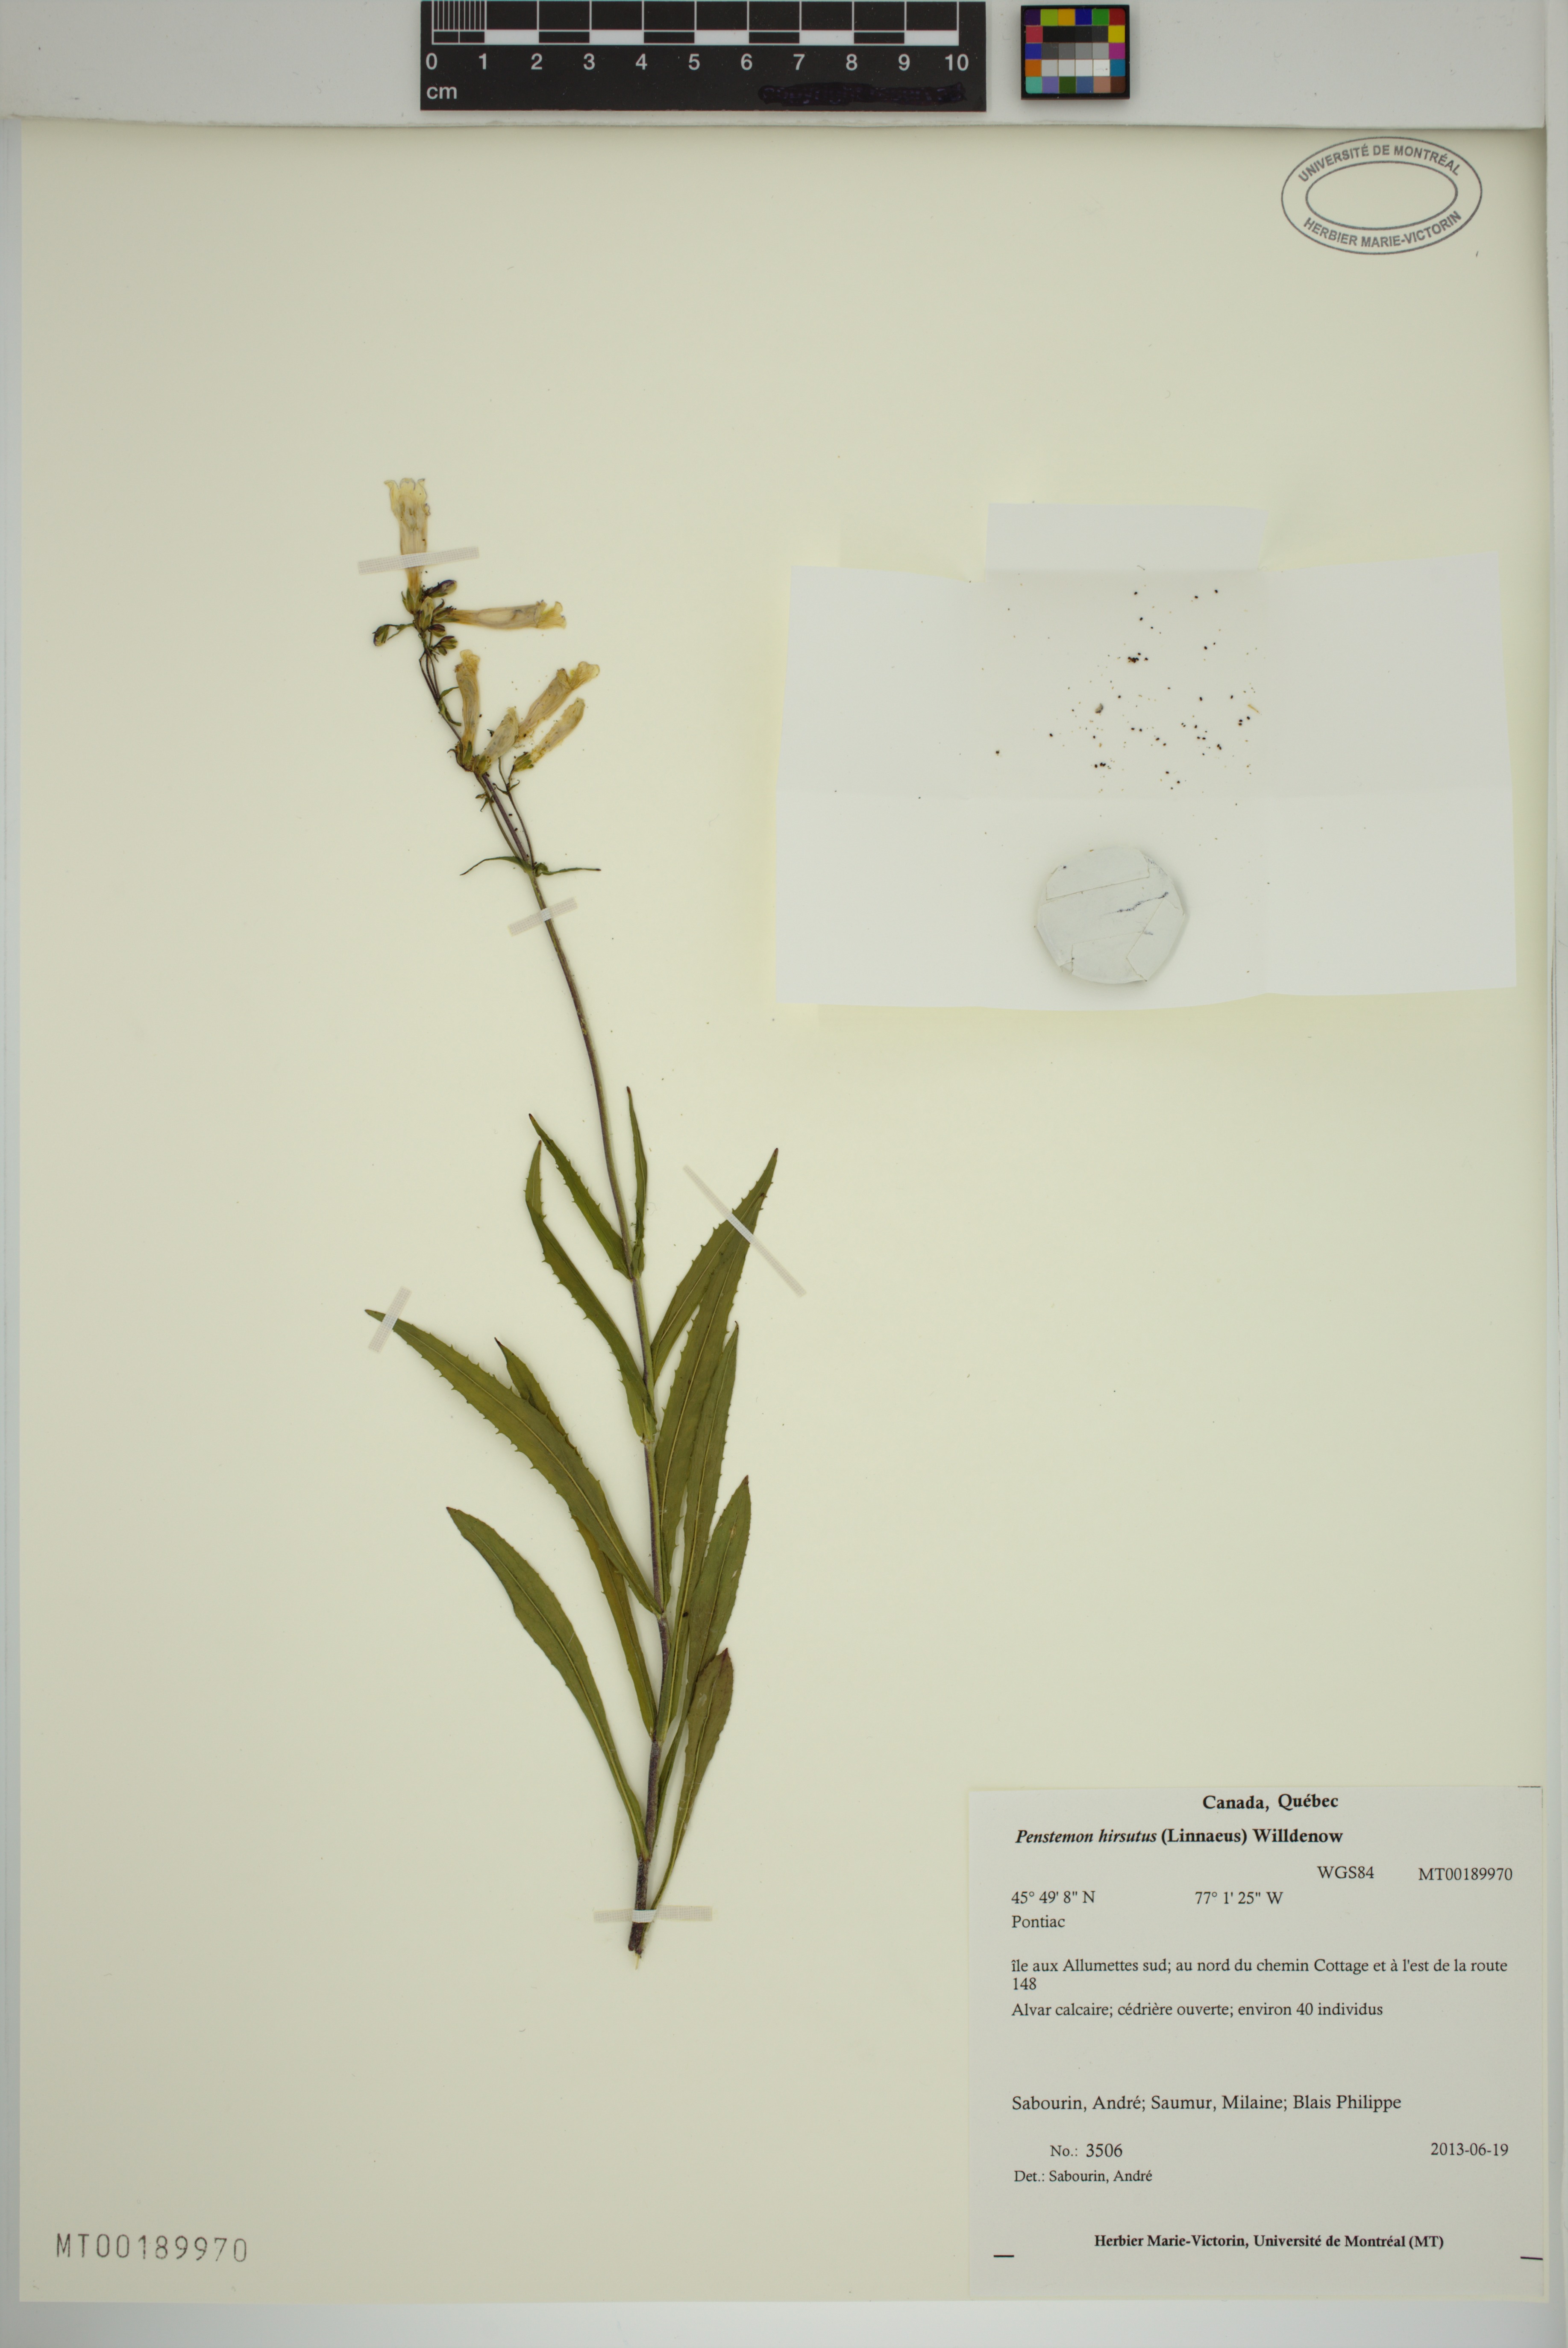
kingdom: Plantae
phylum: Tracheophyta
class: Magnoliopsida
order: Lamiales
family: Plantaginaceae
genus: Penstemon
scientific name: Penstemon hirsutus
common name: Hairy beardtongue
